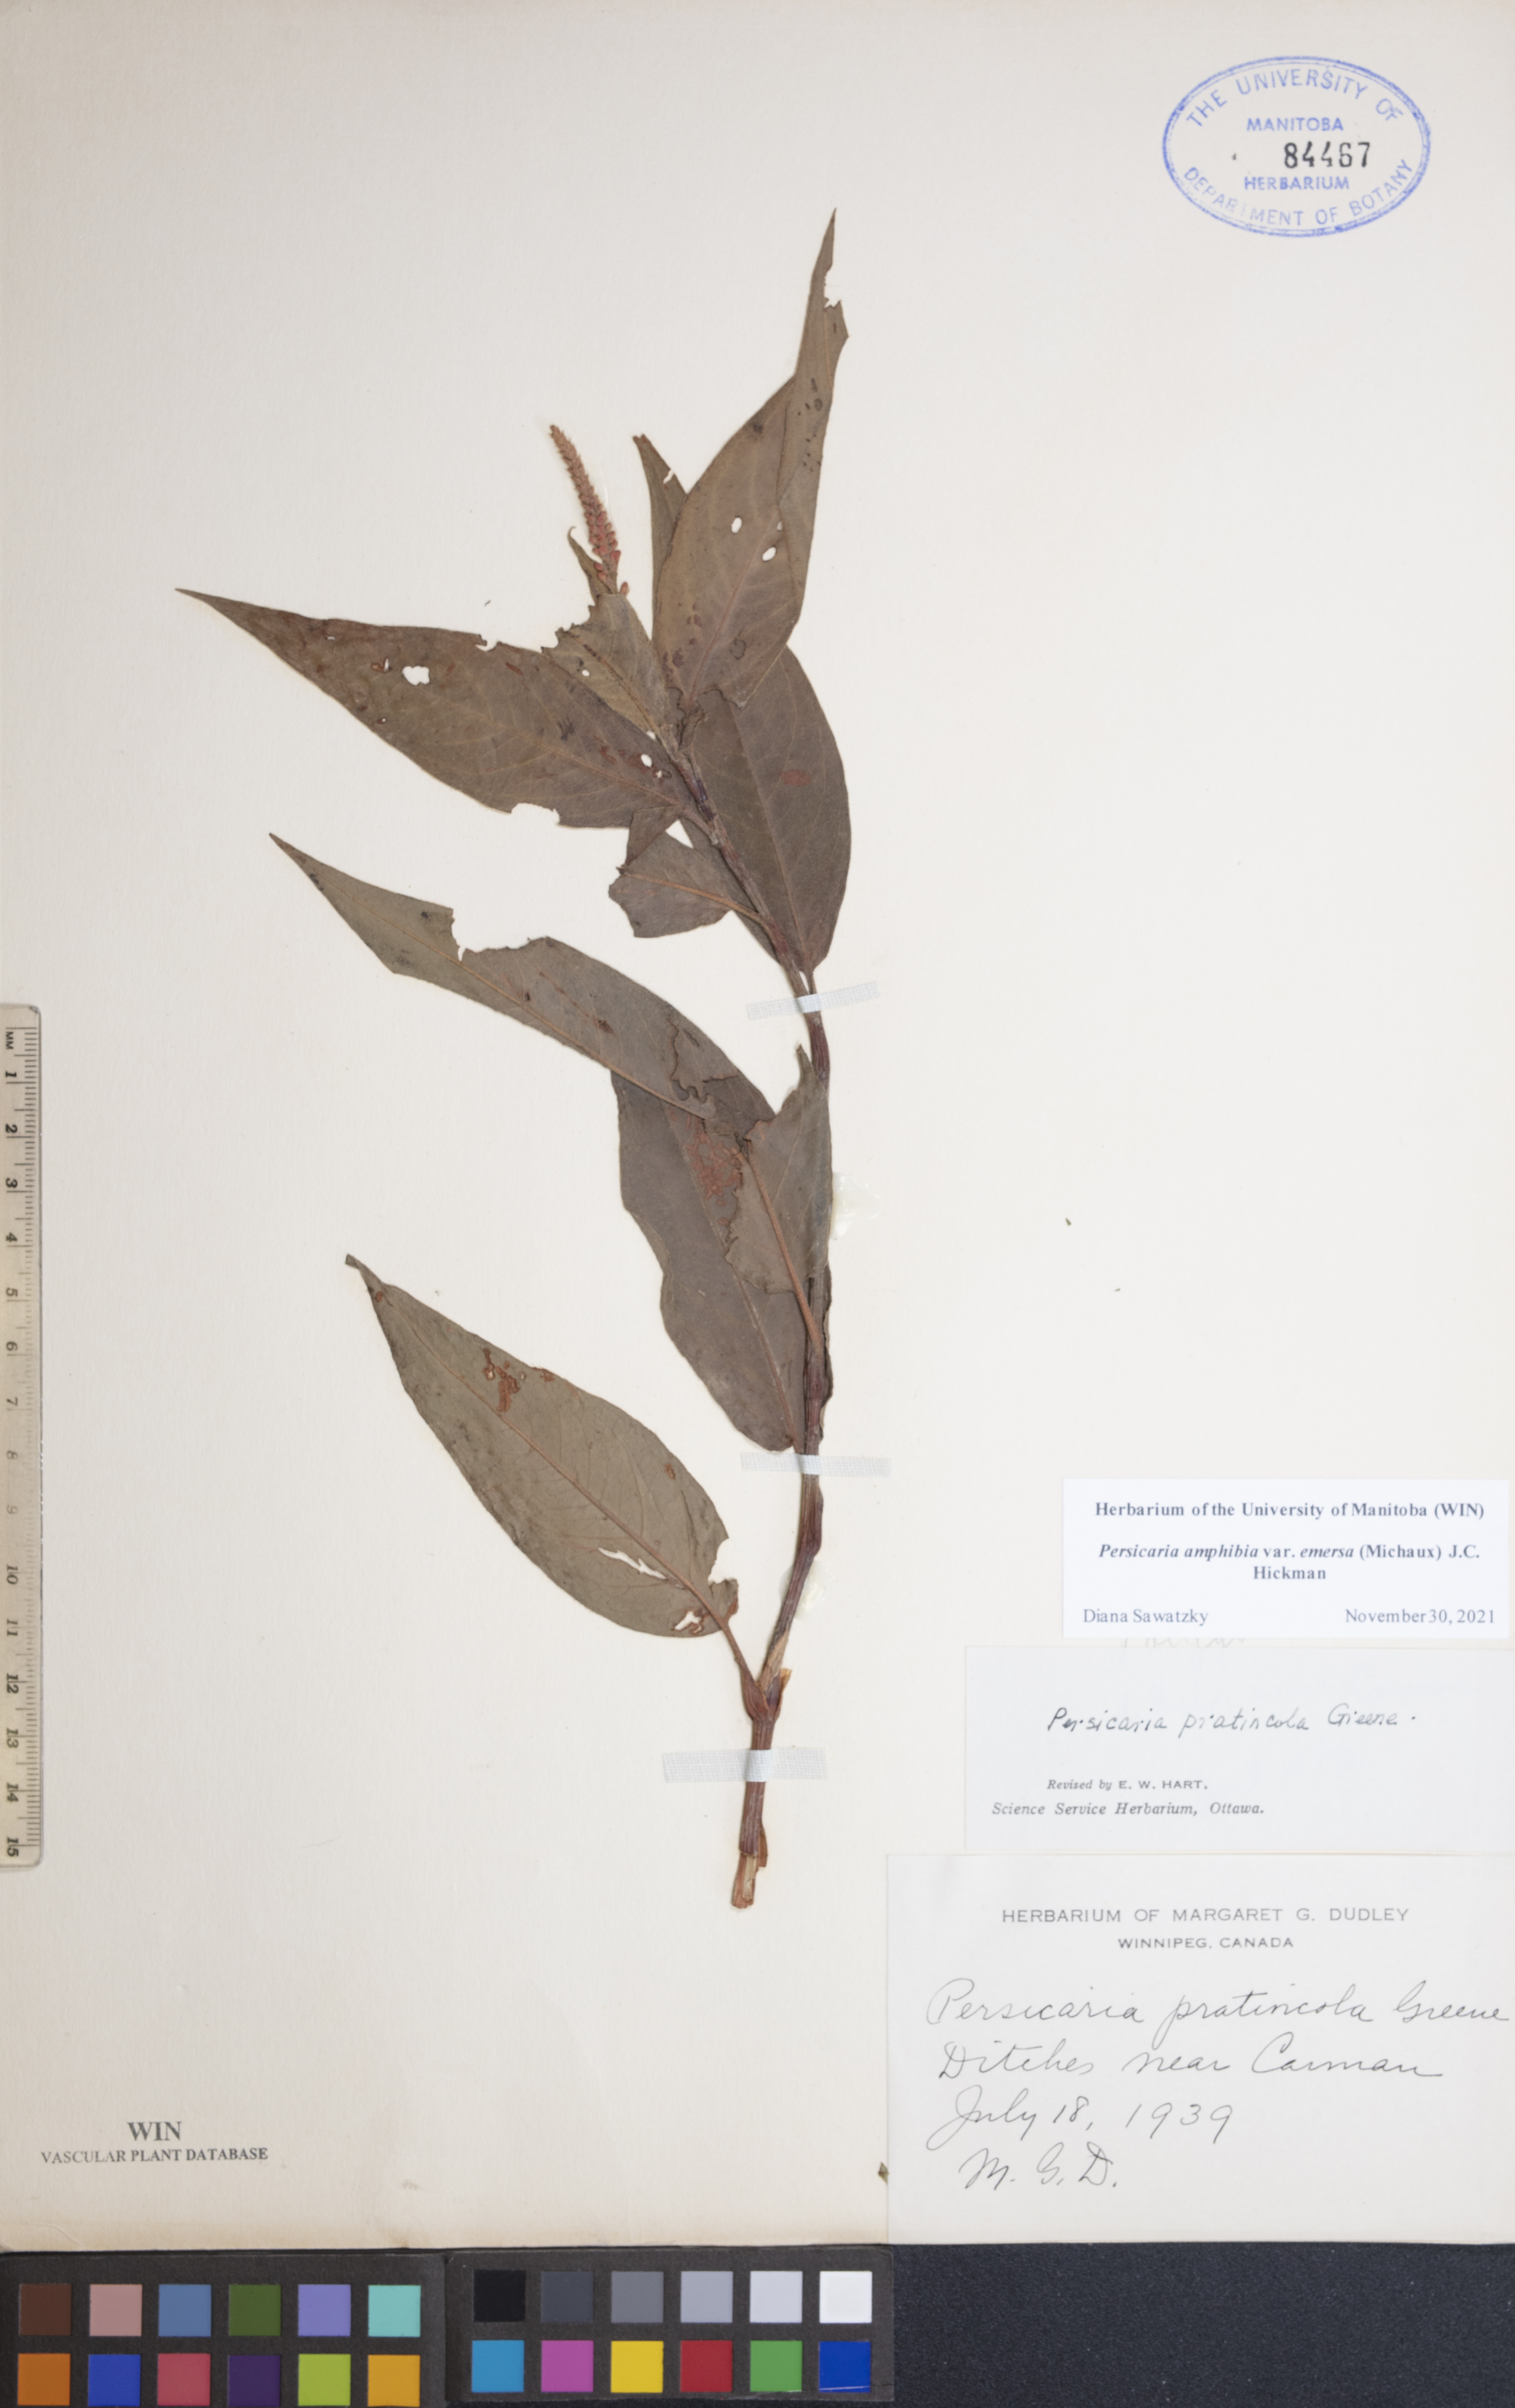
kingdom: Plantae
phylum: Tracheophyta
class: Magnoliopsida
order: Caryophyllales
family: Polygonaceae
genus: Persicaria
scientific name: Persicaria amphibia
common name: Amphibious bistort
